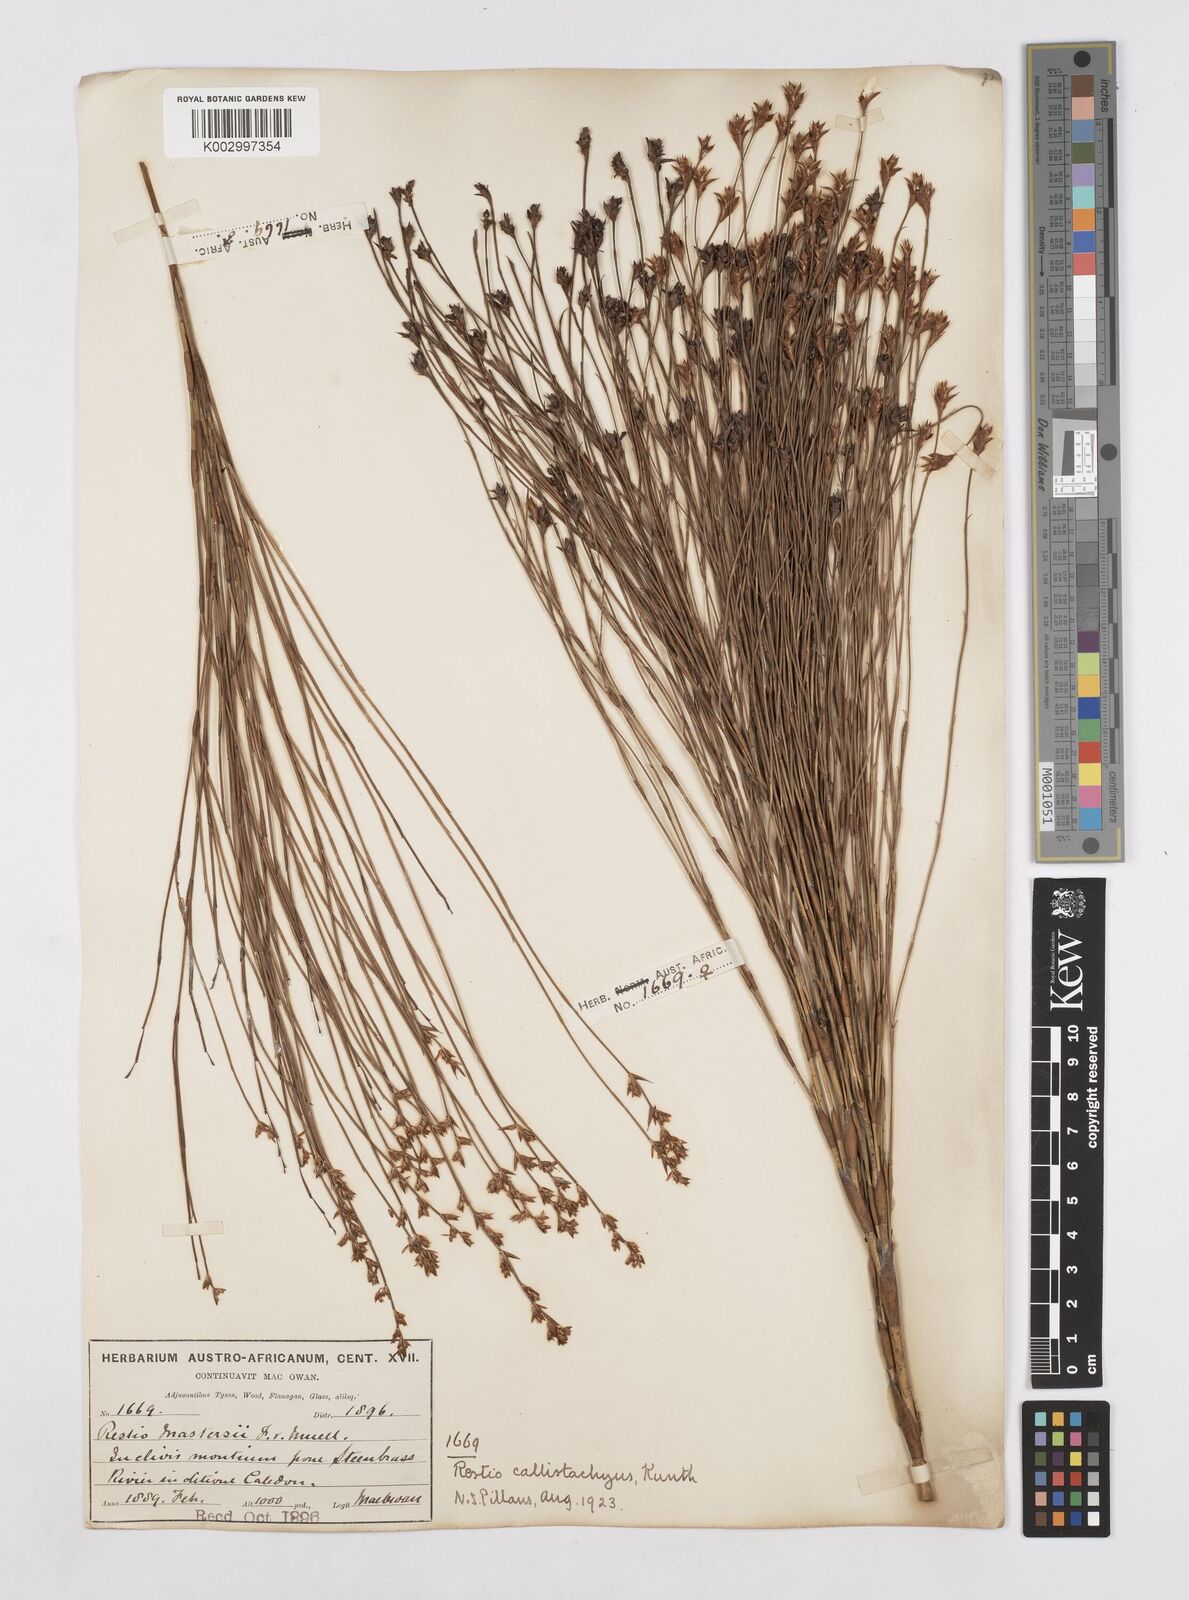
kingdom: Plantae
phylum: Tracheophyta
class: Liliopsida
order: Poales
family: Restionaceae
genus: Platycaulos
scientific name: Platycaulos callistachyus
